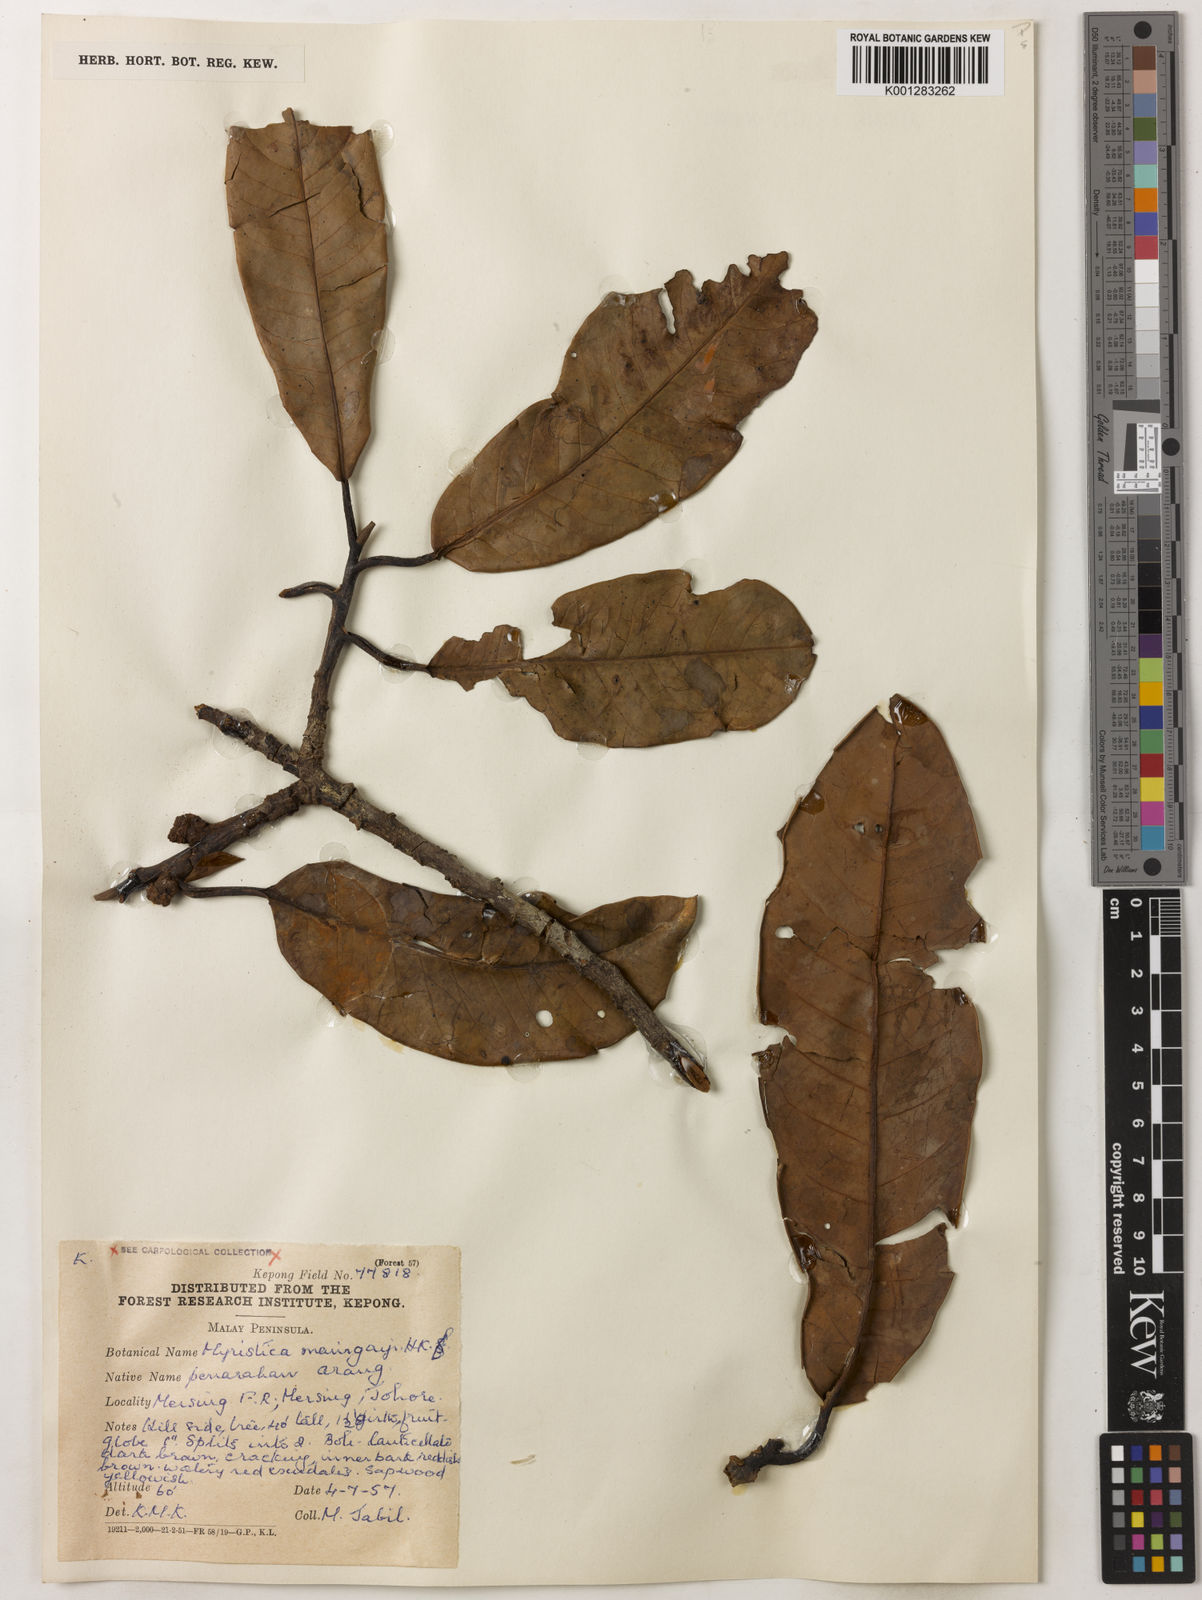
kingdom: Plantae
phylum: Tracheophyta
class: Magnoliopsida
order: Magnoliales
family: Myristicaceae
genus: Myristica
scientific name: Myristica maingayi
